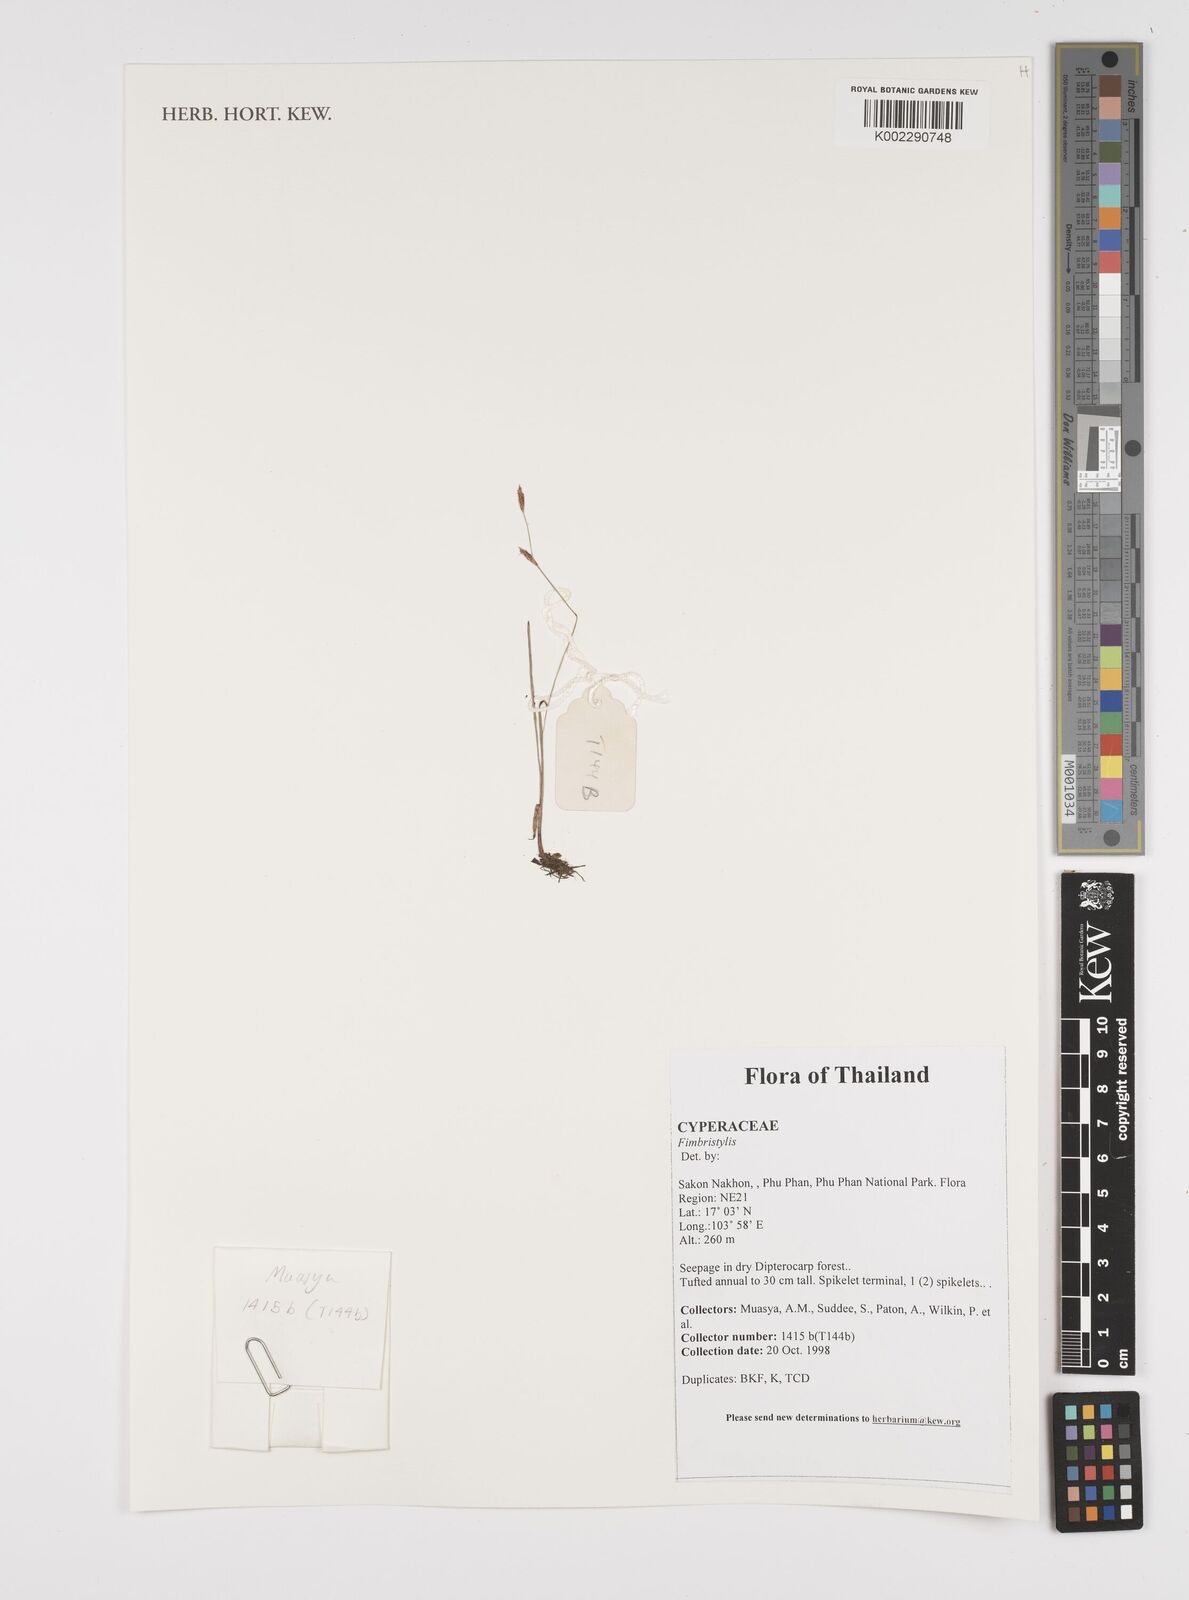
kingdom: Plantae
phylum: Tracheophyta
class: Liliopsida
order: Poales
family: Cyperaceae
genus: Fimbristylis
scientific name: Fimbristylis
